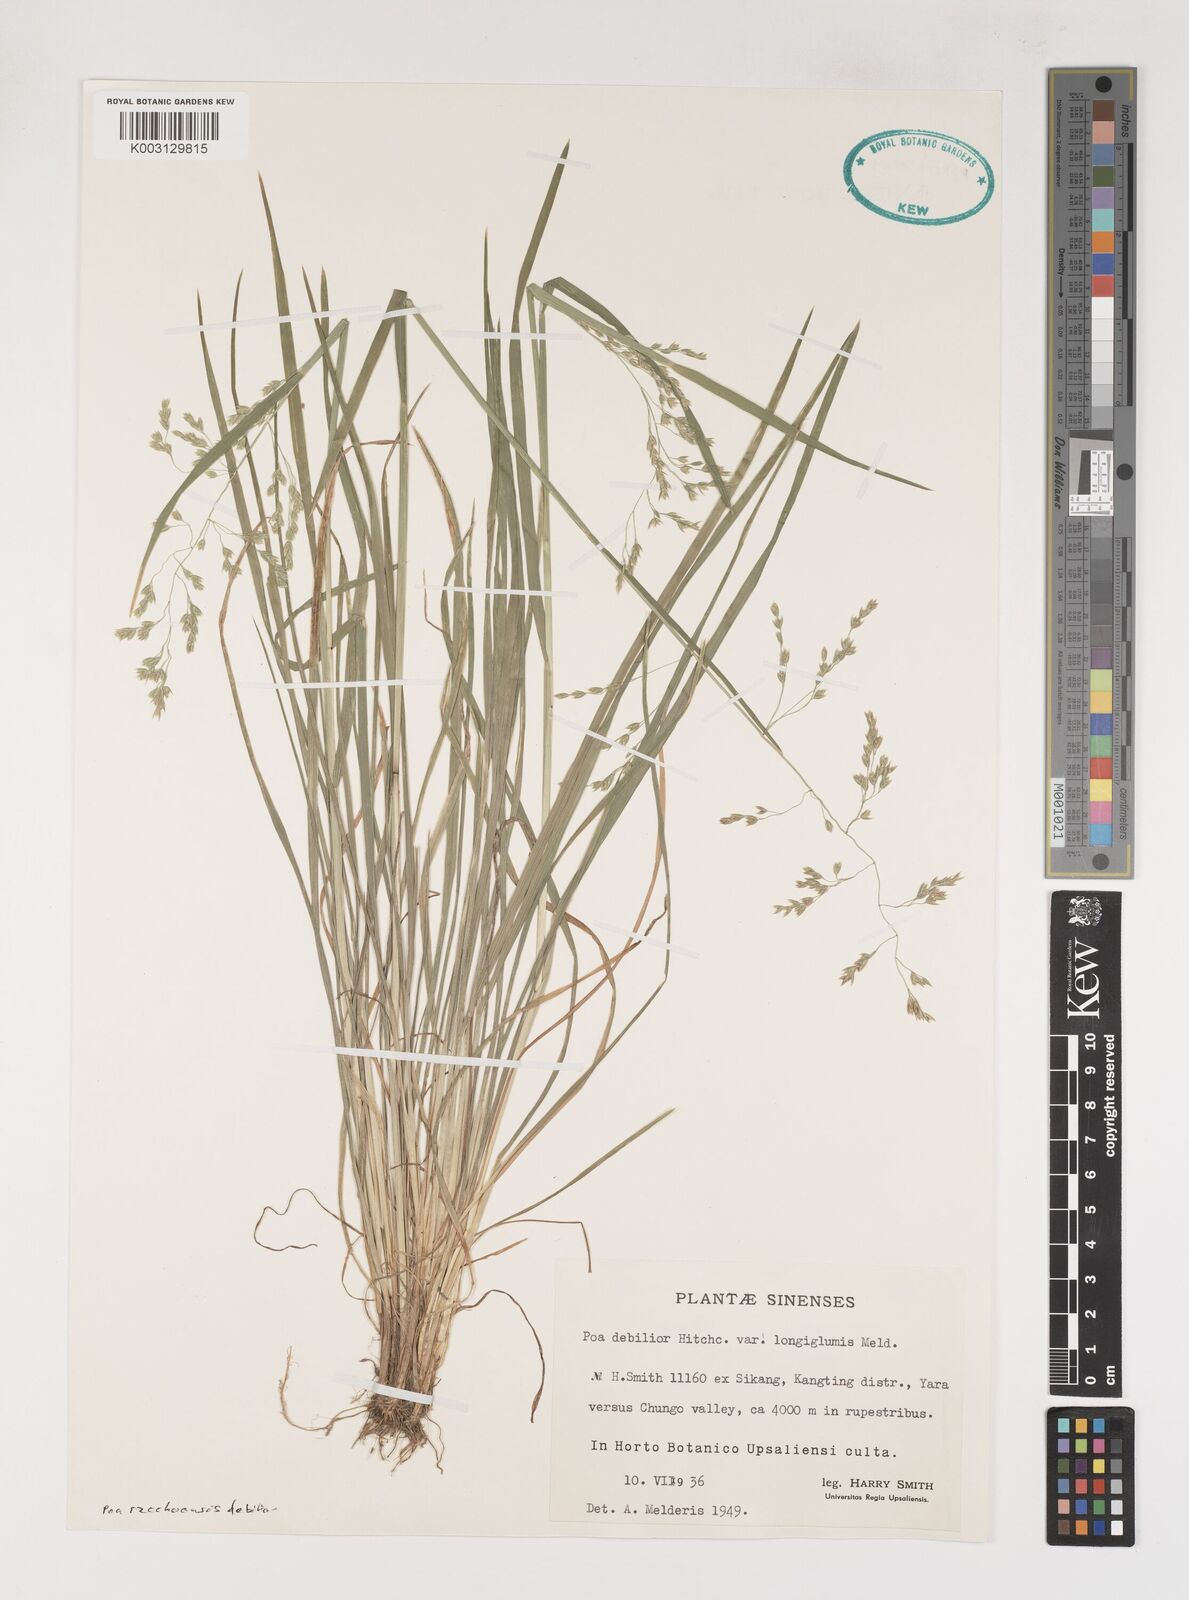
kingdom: Plantae
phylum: Tracheophyta
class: Liliopsida
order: Poales
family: Poaceae
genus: Poa
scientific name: Poa szechuensis
